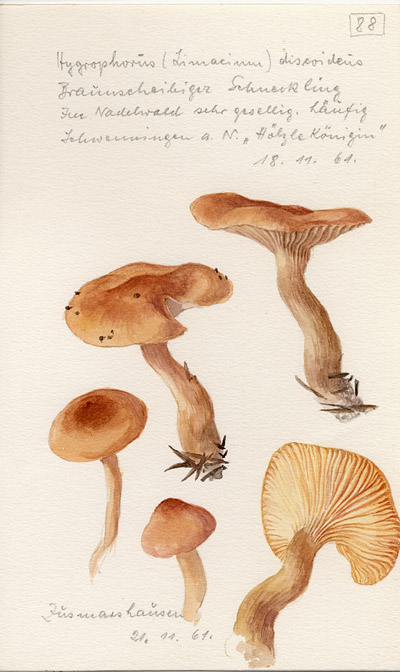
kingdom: Fungi
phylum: Basidiomycota
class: Agaricomycetes
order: Agaricales
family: Hygrophoraceae
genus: Hygrophorus
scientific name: Hygrophorus discoideus
